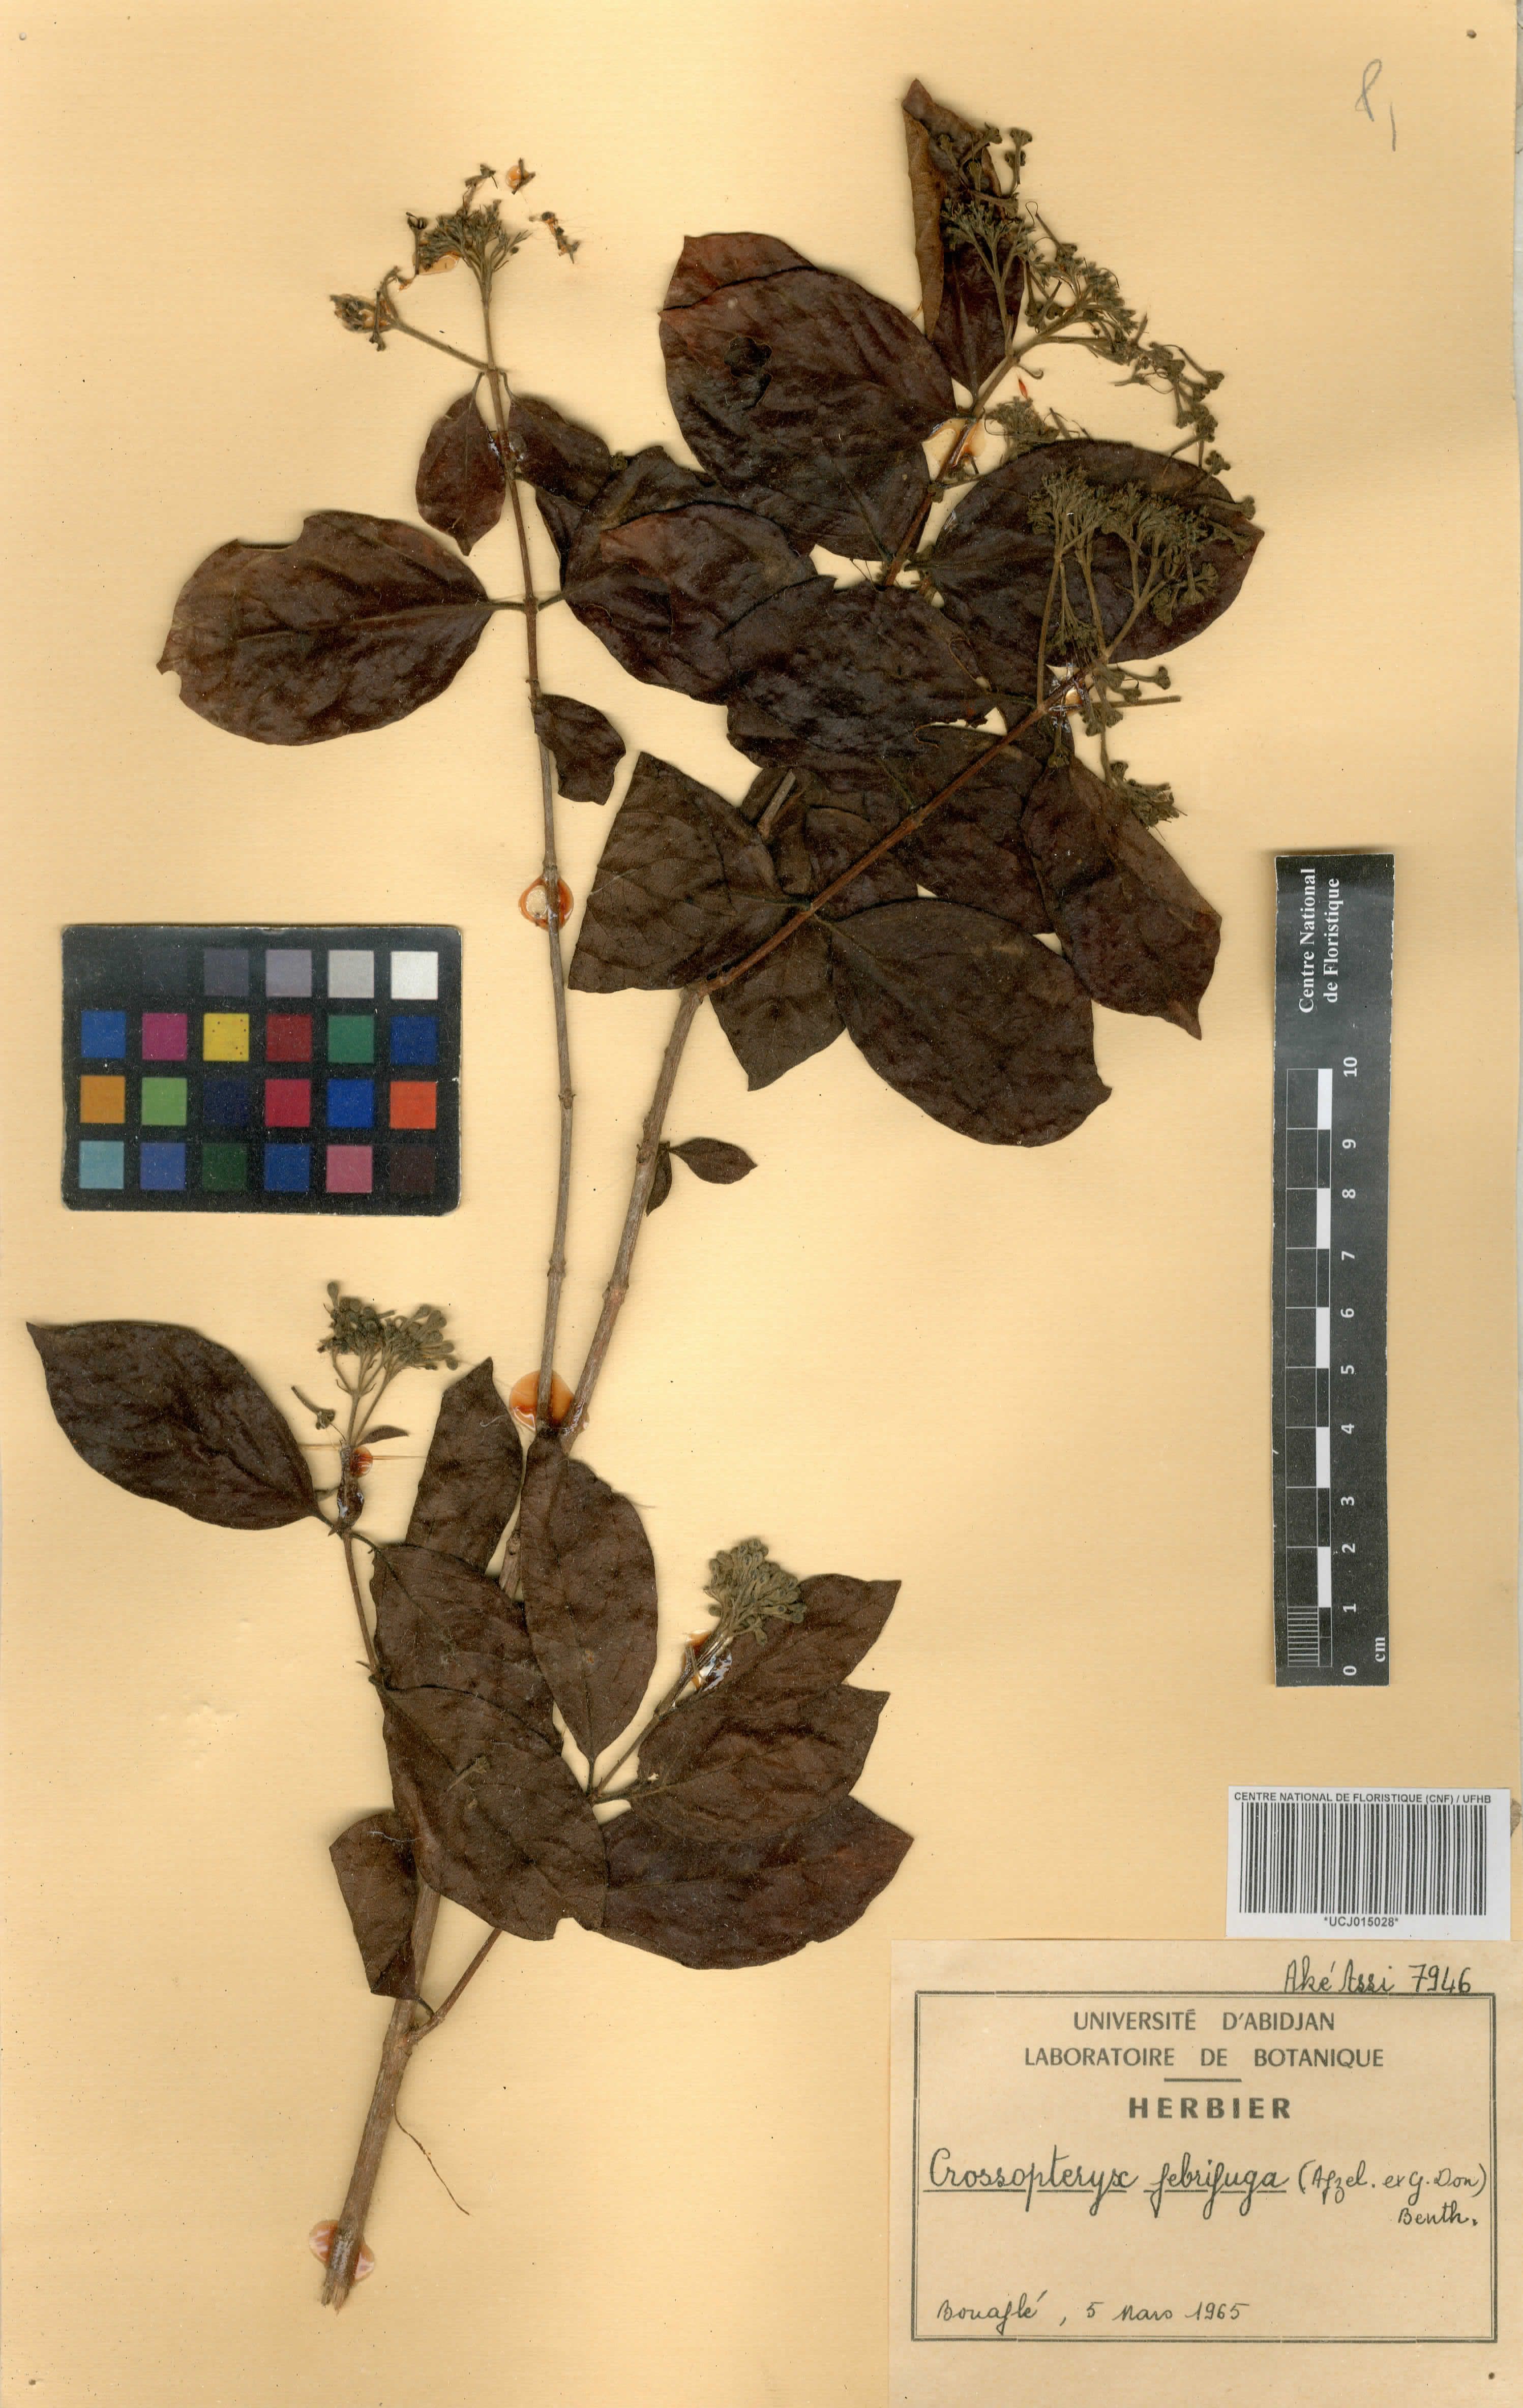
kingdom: Plantae
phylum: Tracheophyta
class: Magnoliopsida
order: Gentianales
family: Rubiaceae
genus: Crossopteryx
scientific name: Crossopteryx febrifuga
